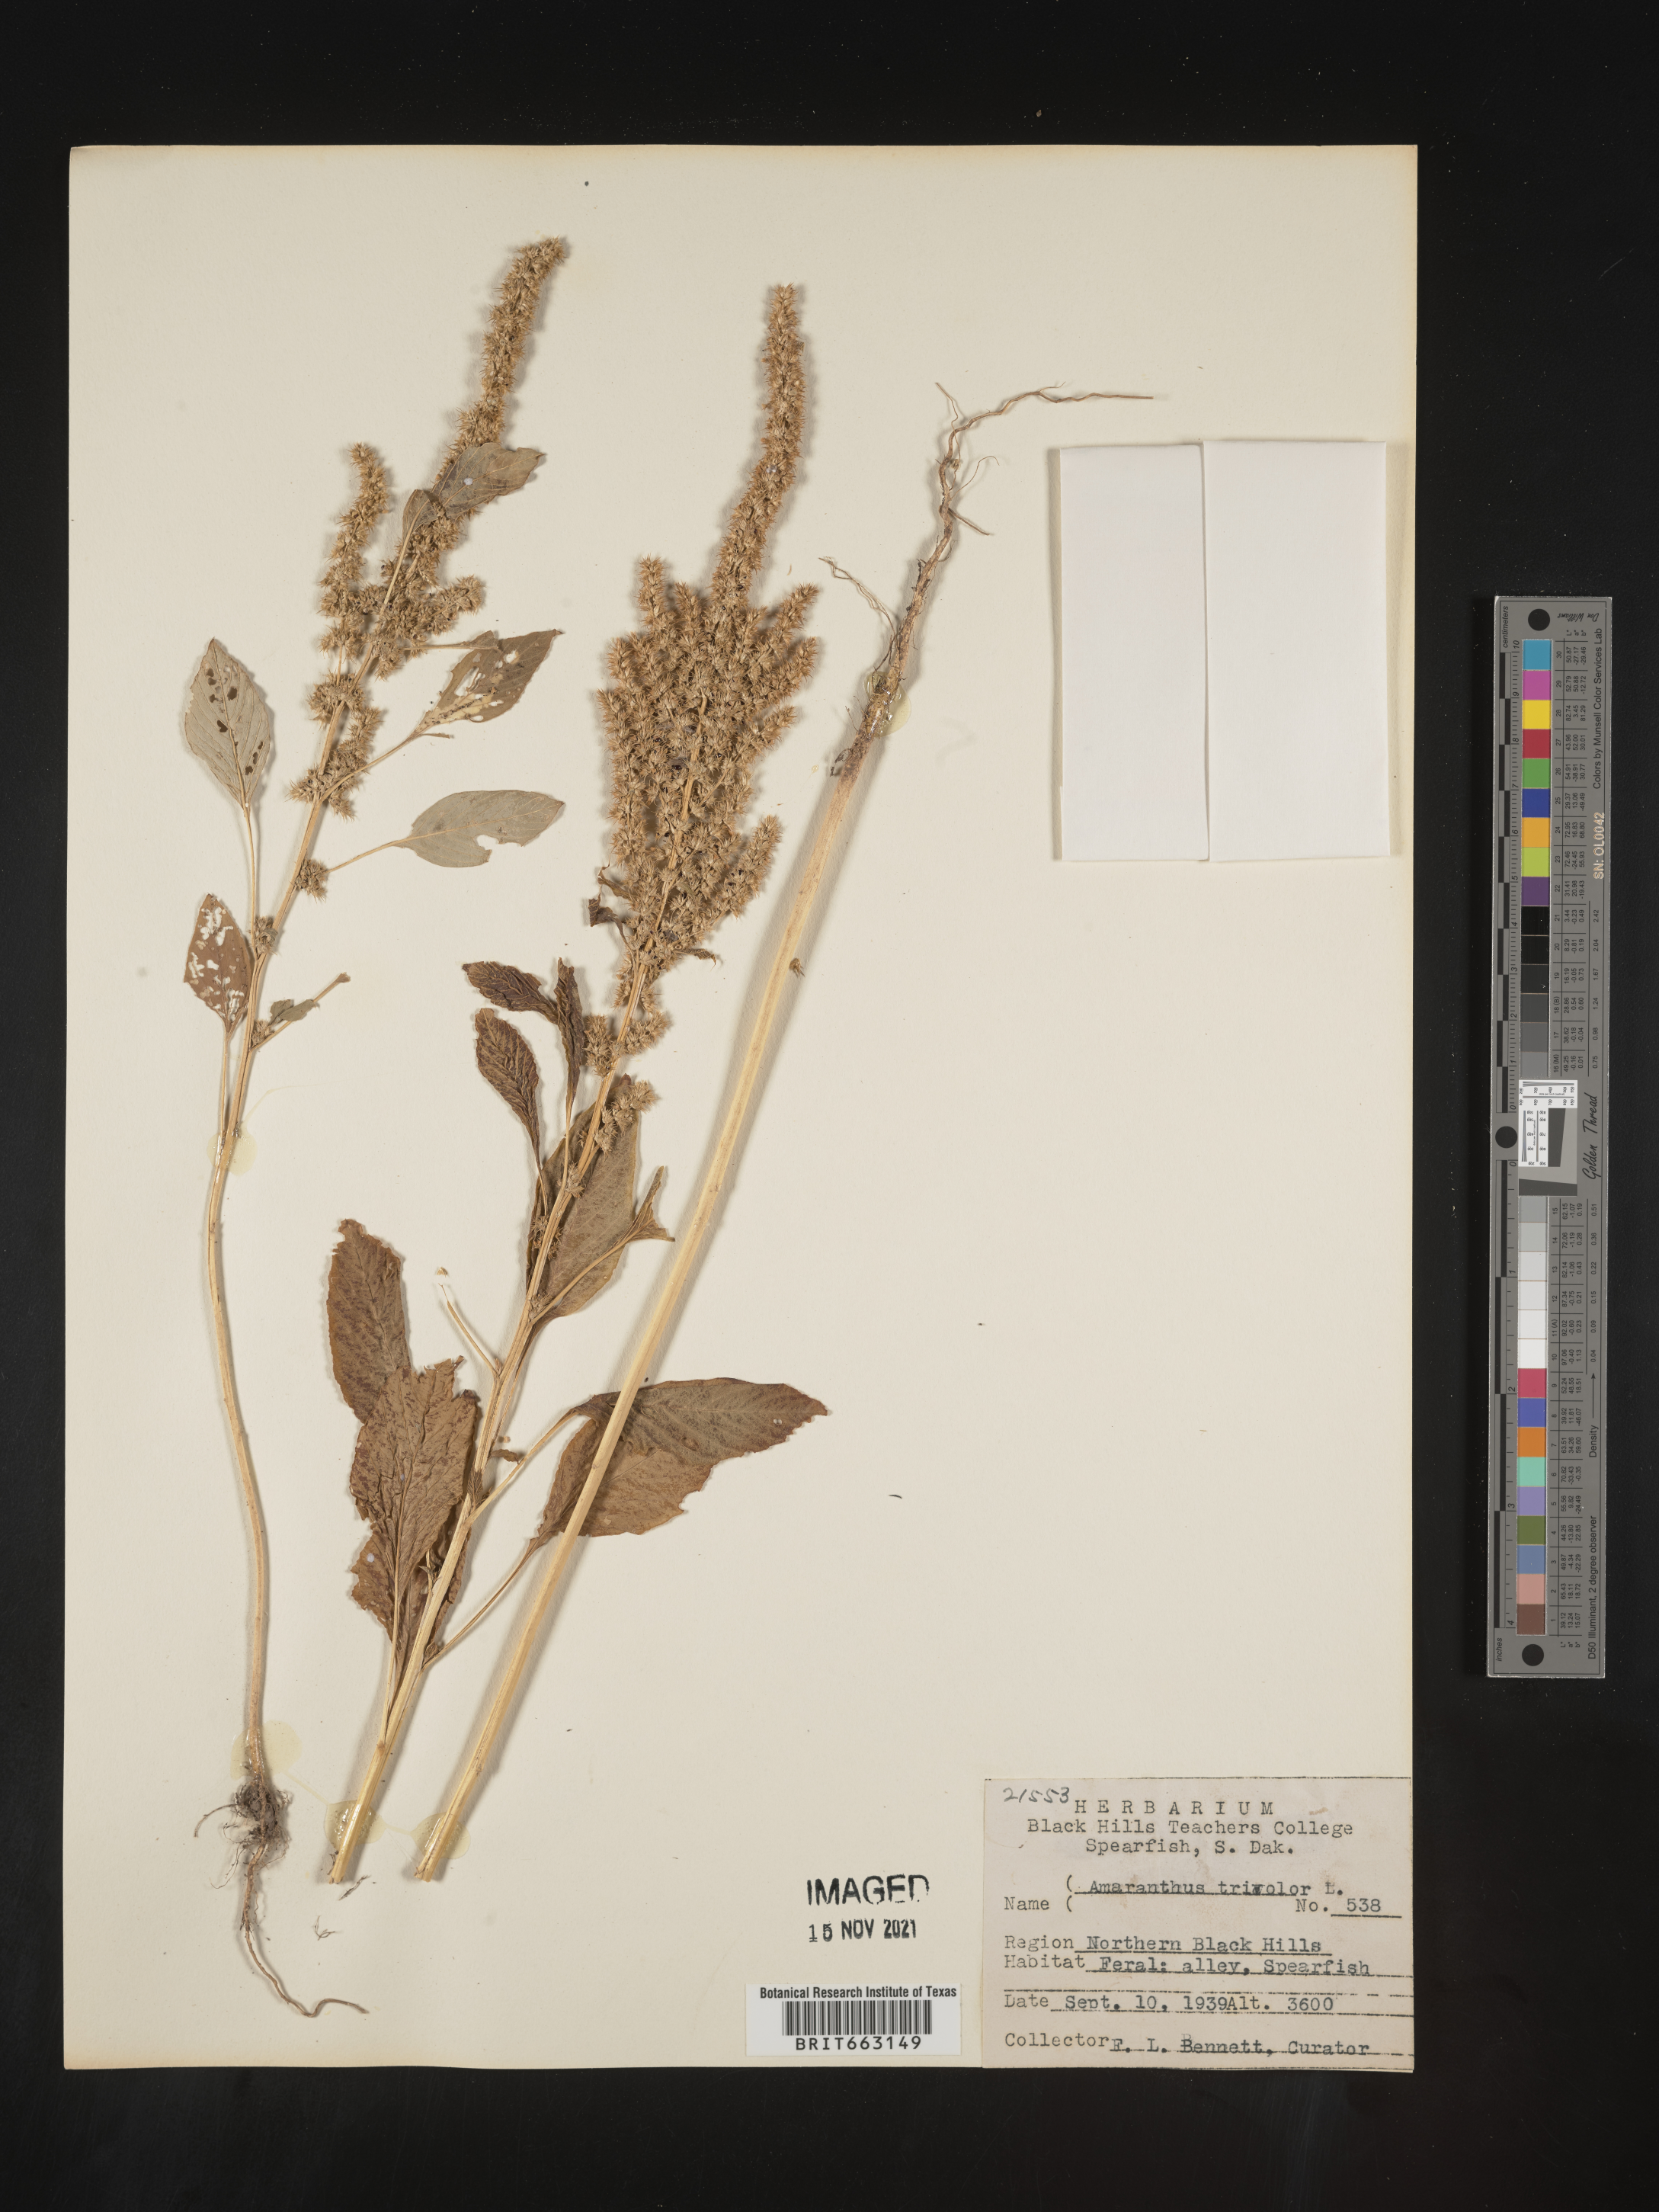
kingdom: Plantae
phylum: Tracheophyta
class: Magnoliopsida
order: Caryophyllales
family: Amaranthaceae
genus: Amaranthus
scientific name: Amaranthus
